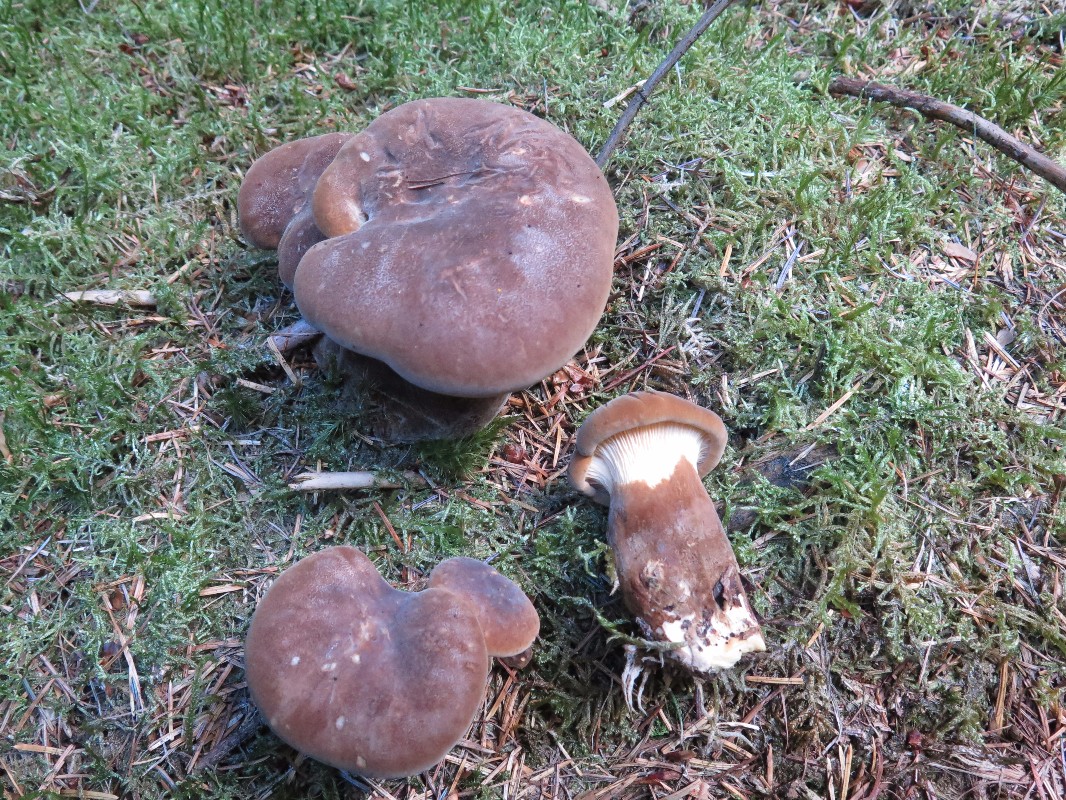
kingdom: Fungi
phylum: Basidiomycota
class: Agaricomycetes
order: Boletales
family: Tapinellaceae
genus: Tapinella
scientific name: Tapinella atrotomentosa
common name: sortfiltet viftesvamp
